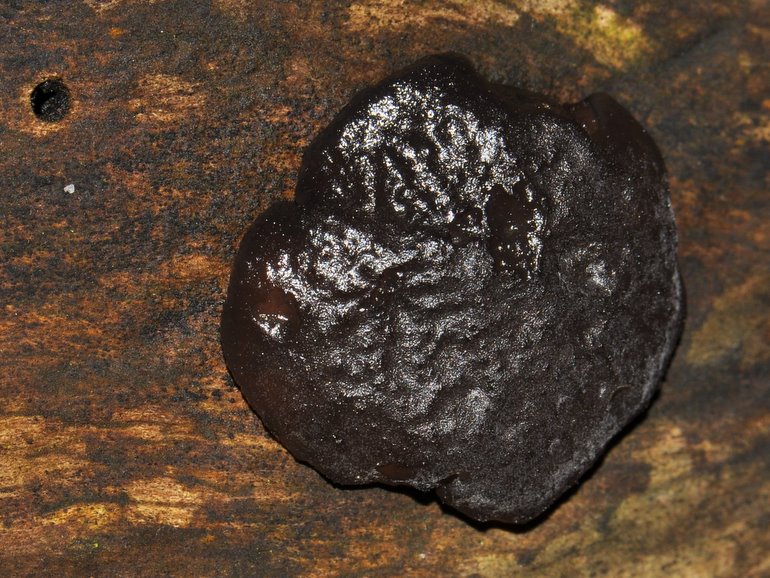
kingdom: Fungi
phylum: Basidiomycota
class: Agaricomycetes
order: Auriculariales
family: Auriculariaceae
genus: Exidia
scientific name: Exidia nigricans
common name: almindelig bævretop
